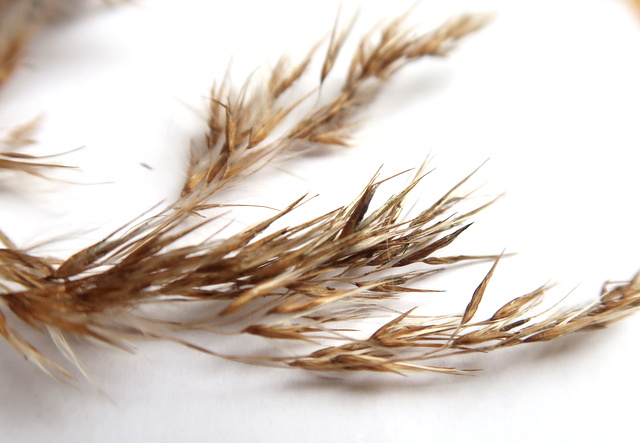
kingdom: Fungi
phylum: Ascomycota
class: Sordariomycetes
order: Hypocreales
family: Clavicipitaceae
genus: Claviceps
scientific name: Claviceps arundinis
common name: tagrør-meldrøjer
